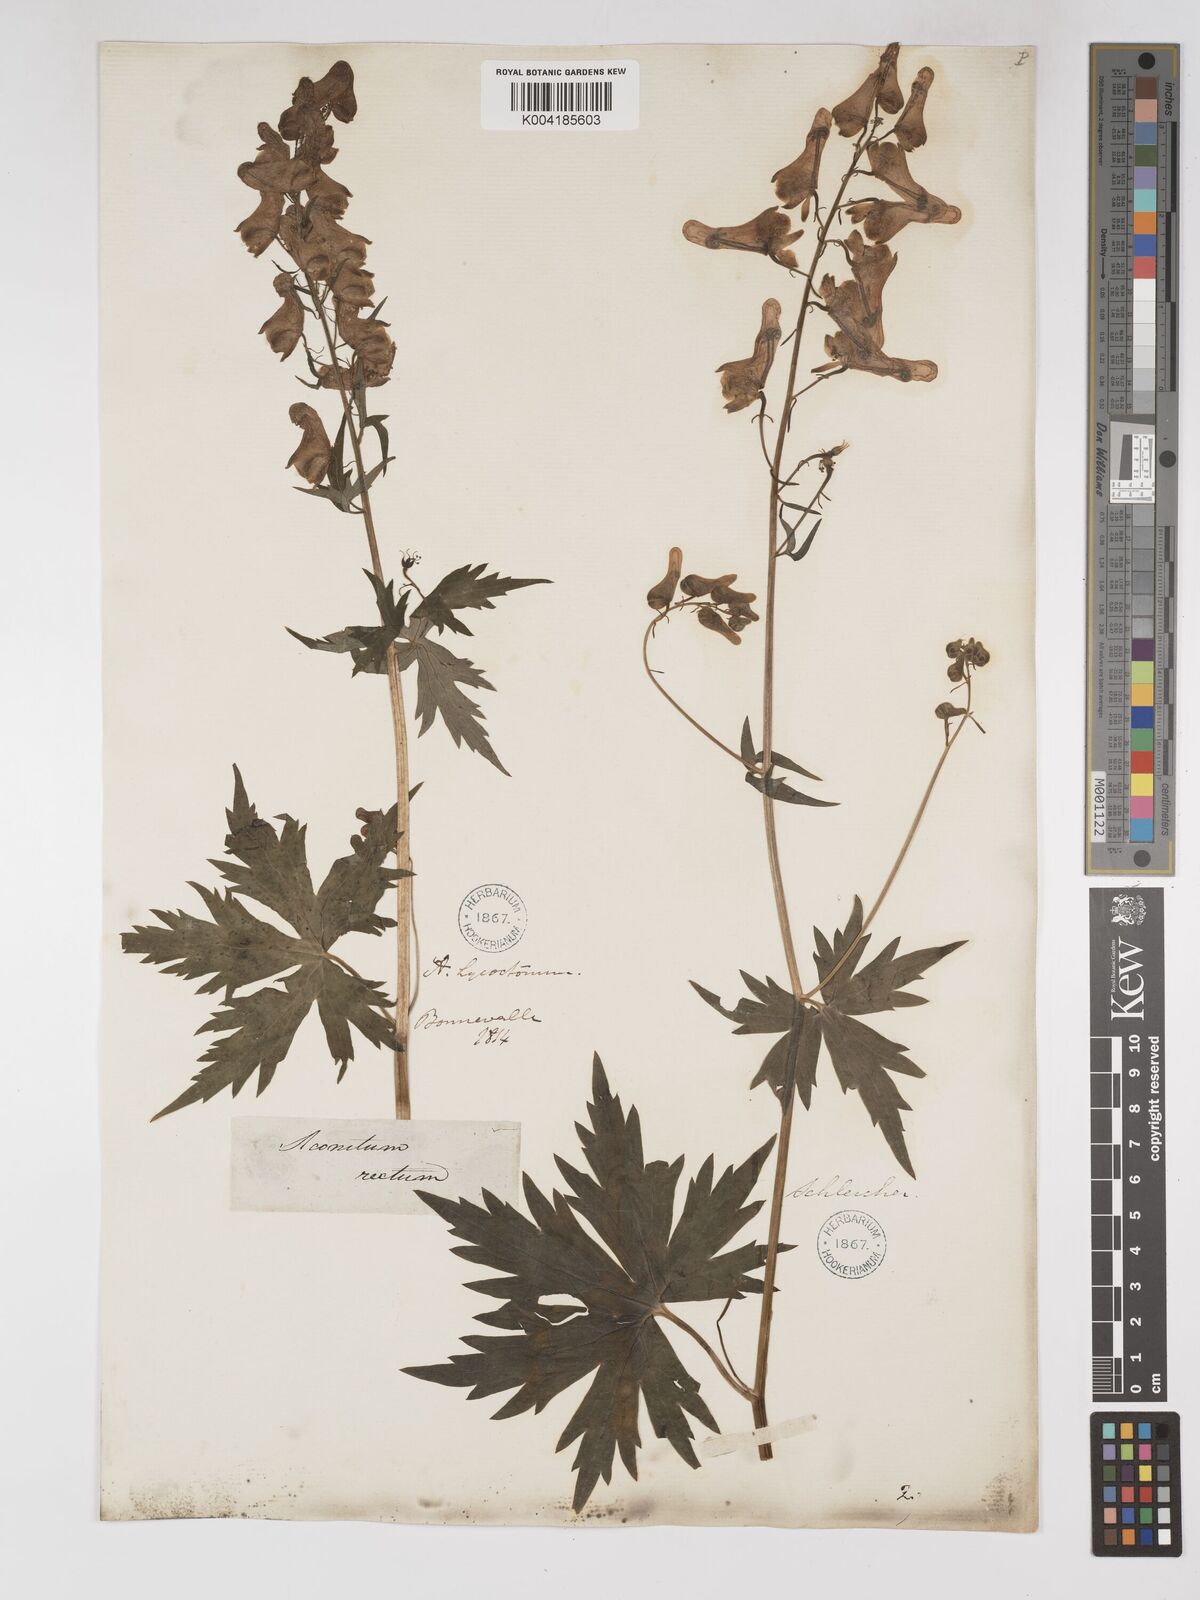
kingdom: Plantae
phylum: Tracheophyta
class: Magnoliopsida
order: Ranunculales
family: Ranunculaceae
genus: Aconitum
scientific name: Aconitum lycoctonum
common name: Wolf's-bane
